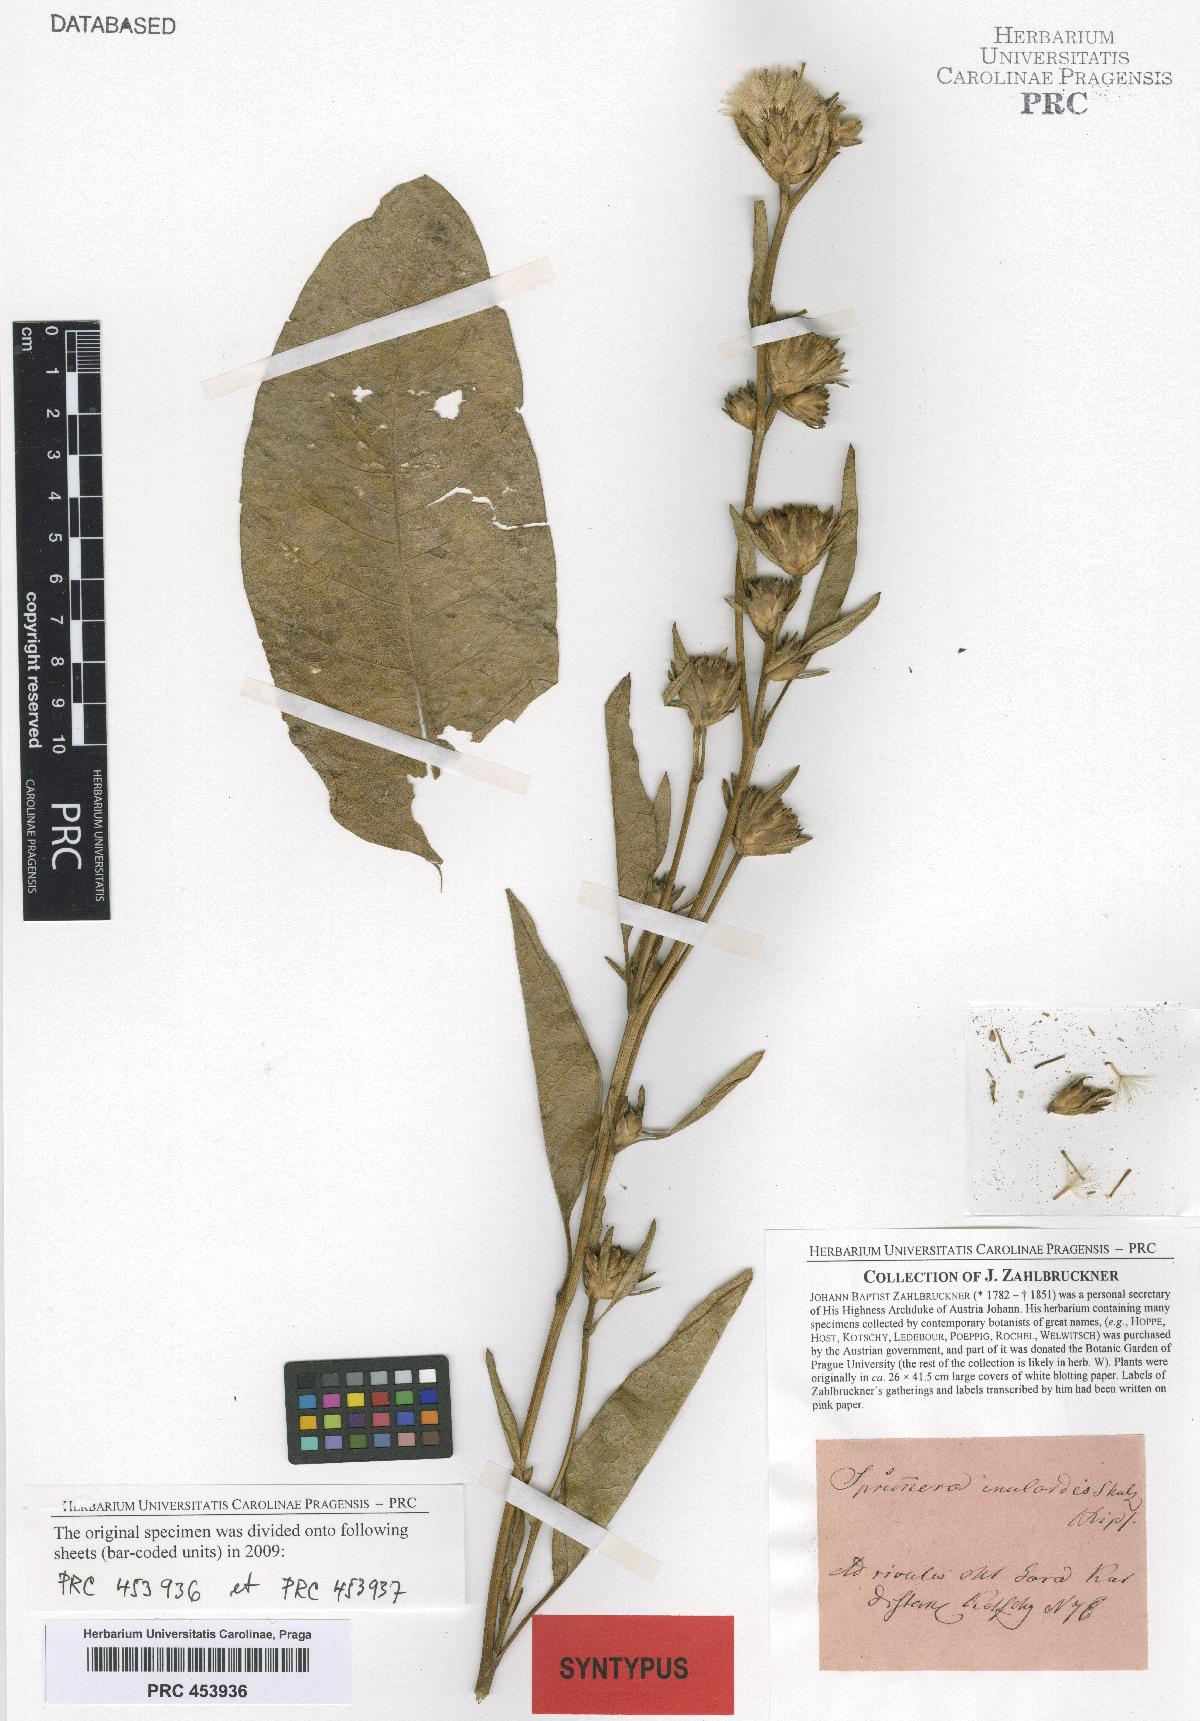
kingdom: Plantae
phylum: Tracheophyta
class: Magnoliopsida
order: Asterales
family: Asteraceae
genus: Inula
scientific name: Inula inuloides
